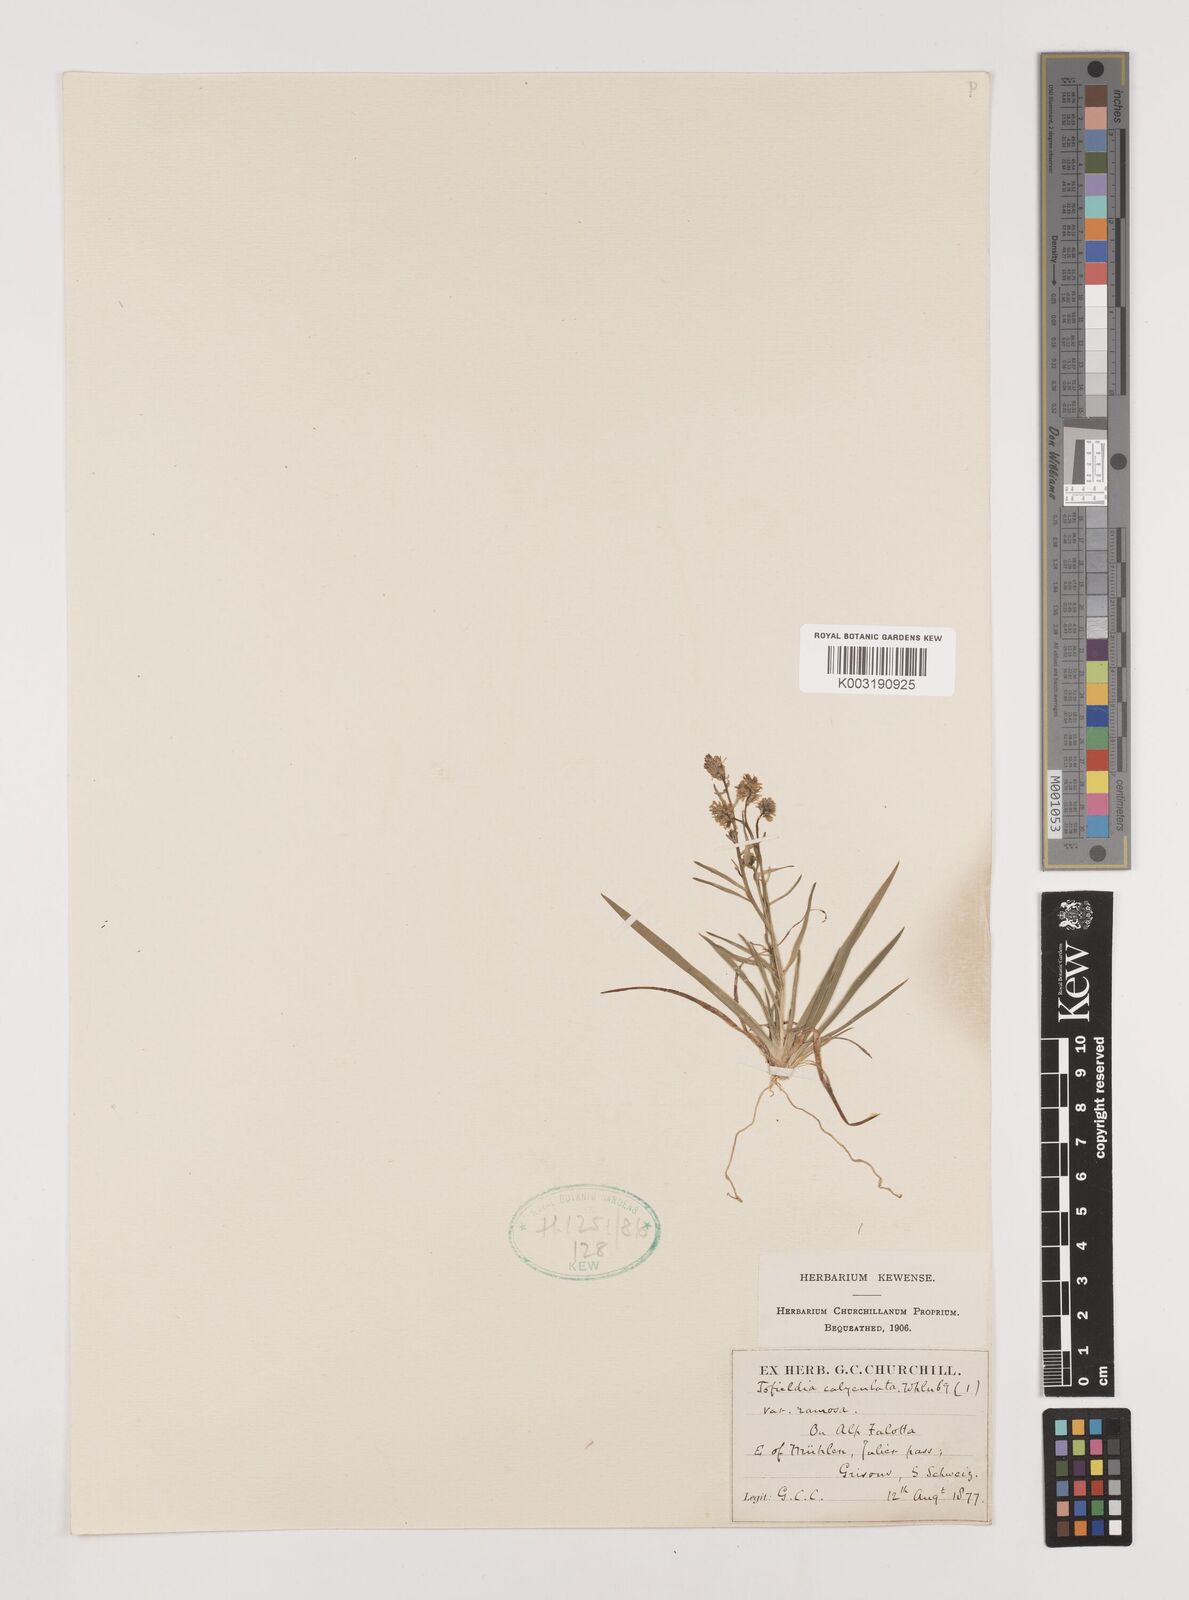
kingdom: Plantae
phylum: Tracheophyta
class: Liliopsida
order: Alismatales
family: Tofieldiaceae
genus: Tofieldia
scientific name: Tofieldia calyculata
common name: German-asphodel
